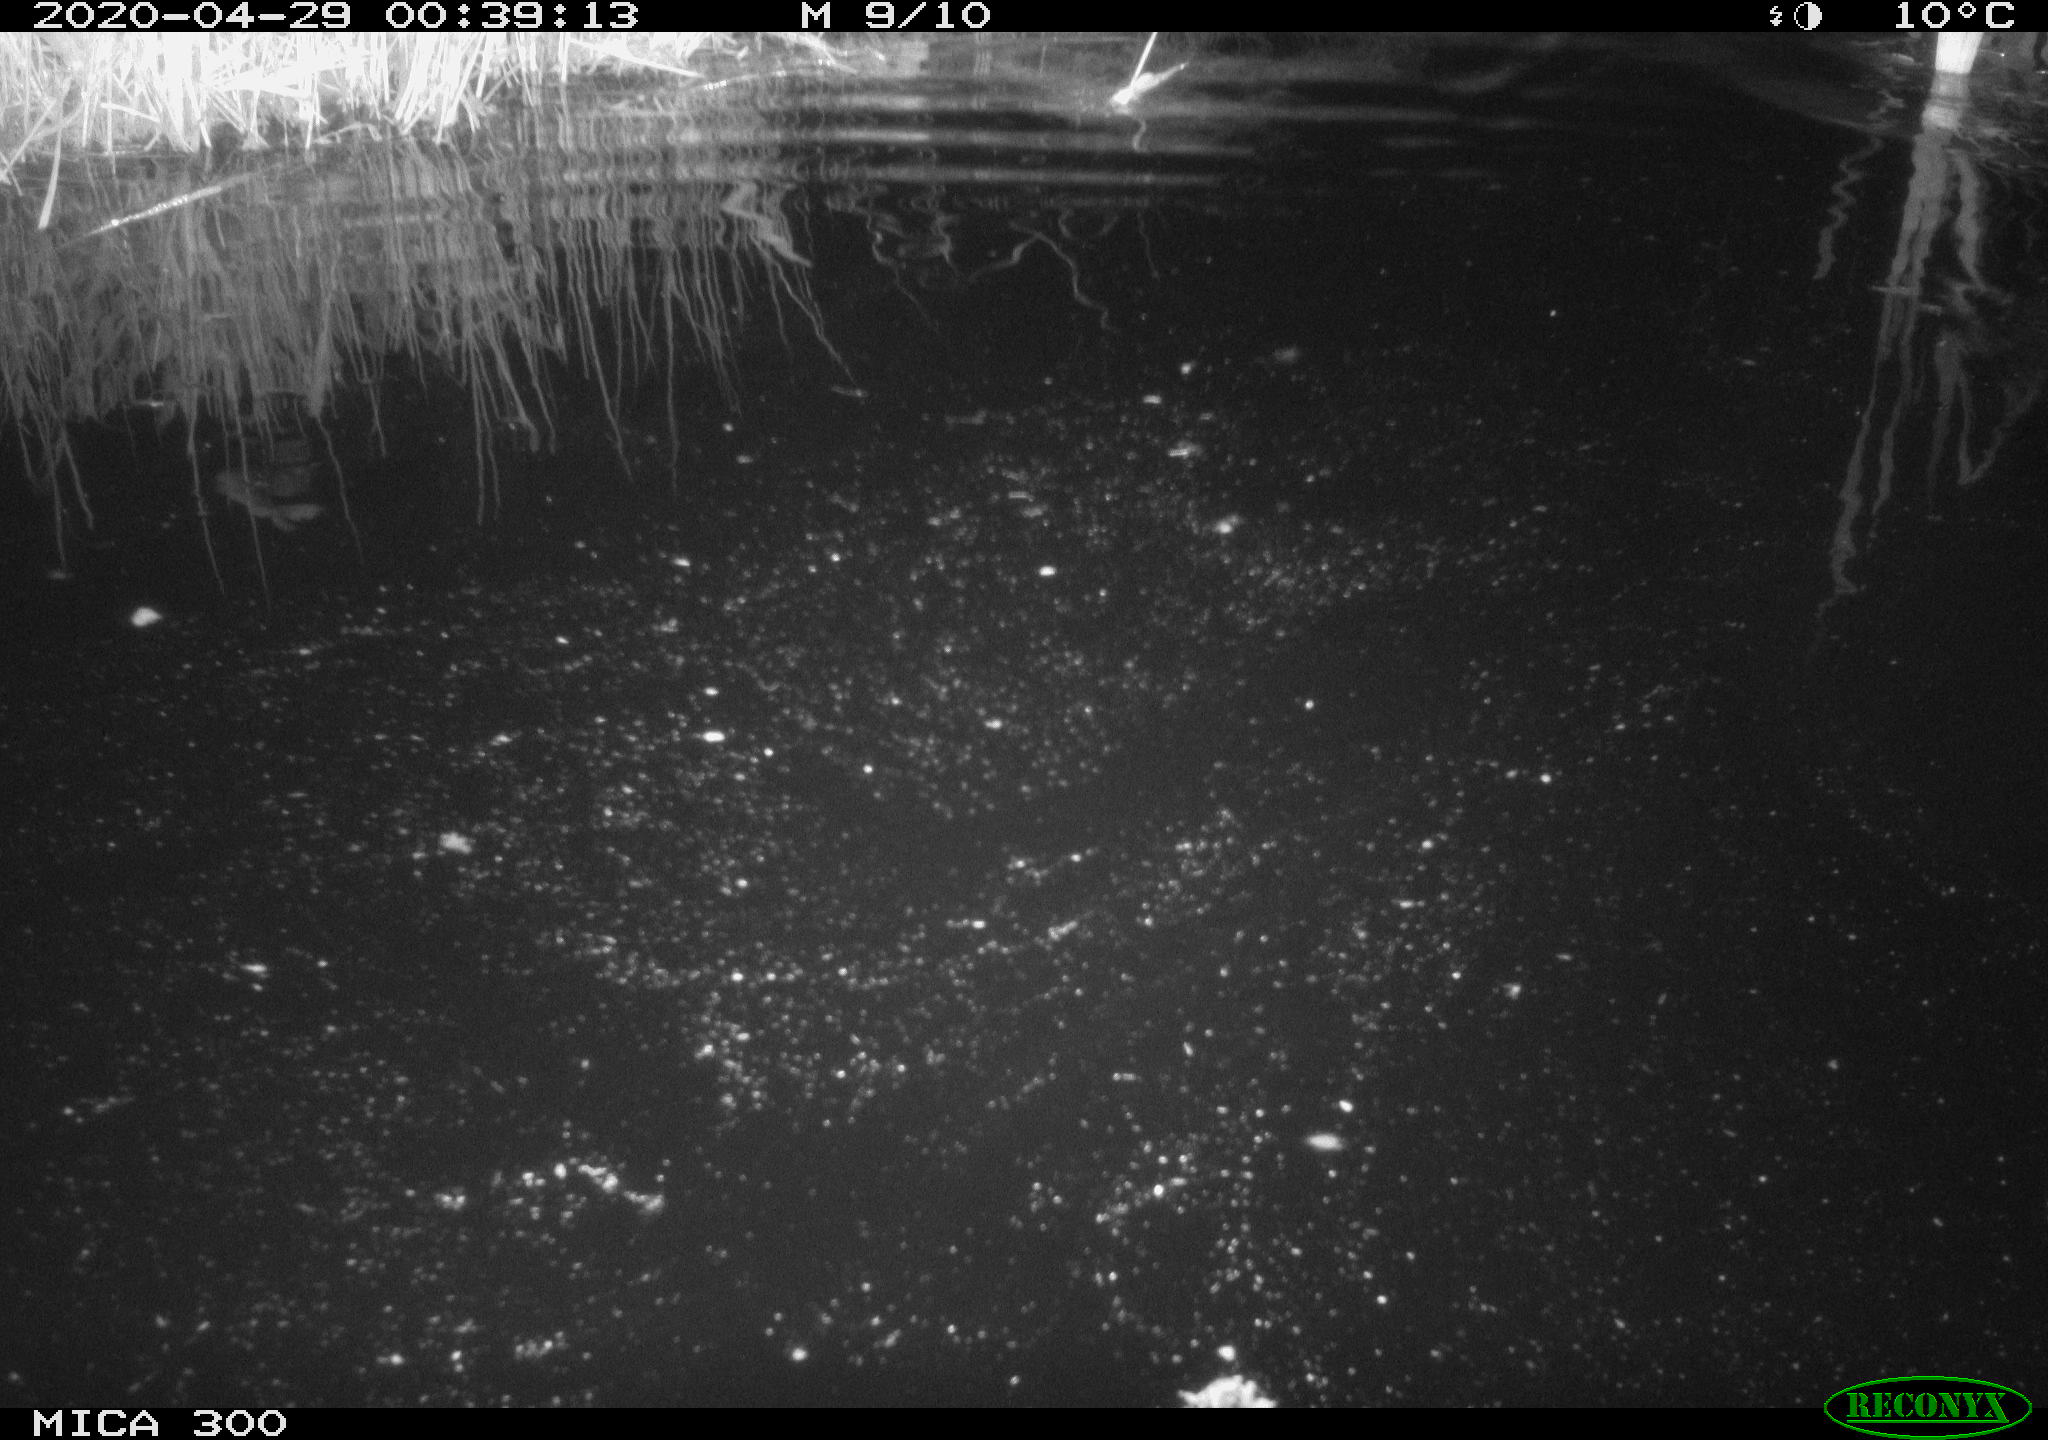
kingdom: Animalia
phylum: Chordata
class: Mammalia
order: Rodentia
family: Castoridae
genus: Castor
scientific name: Castor fiber
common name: Eurasian beaver
